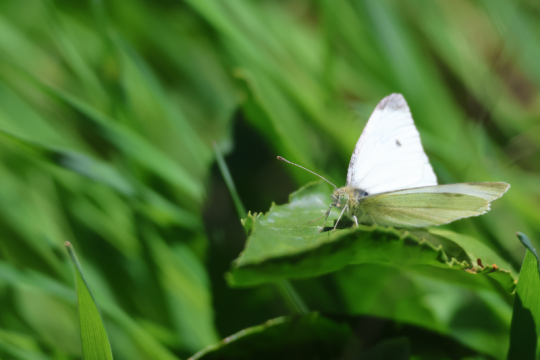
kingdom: Animalia
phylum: Arthropoda
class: Insecta
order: Lepidoptera
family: Pieridae
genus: Pieris
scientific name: Pieris rapae
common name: Cabbage White
